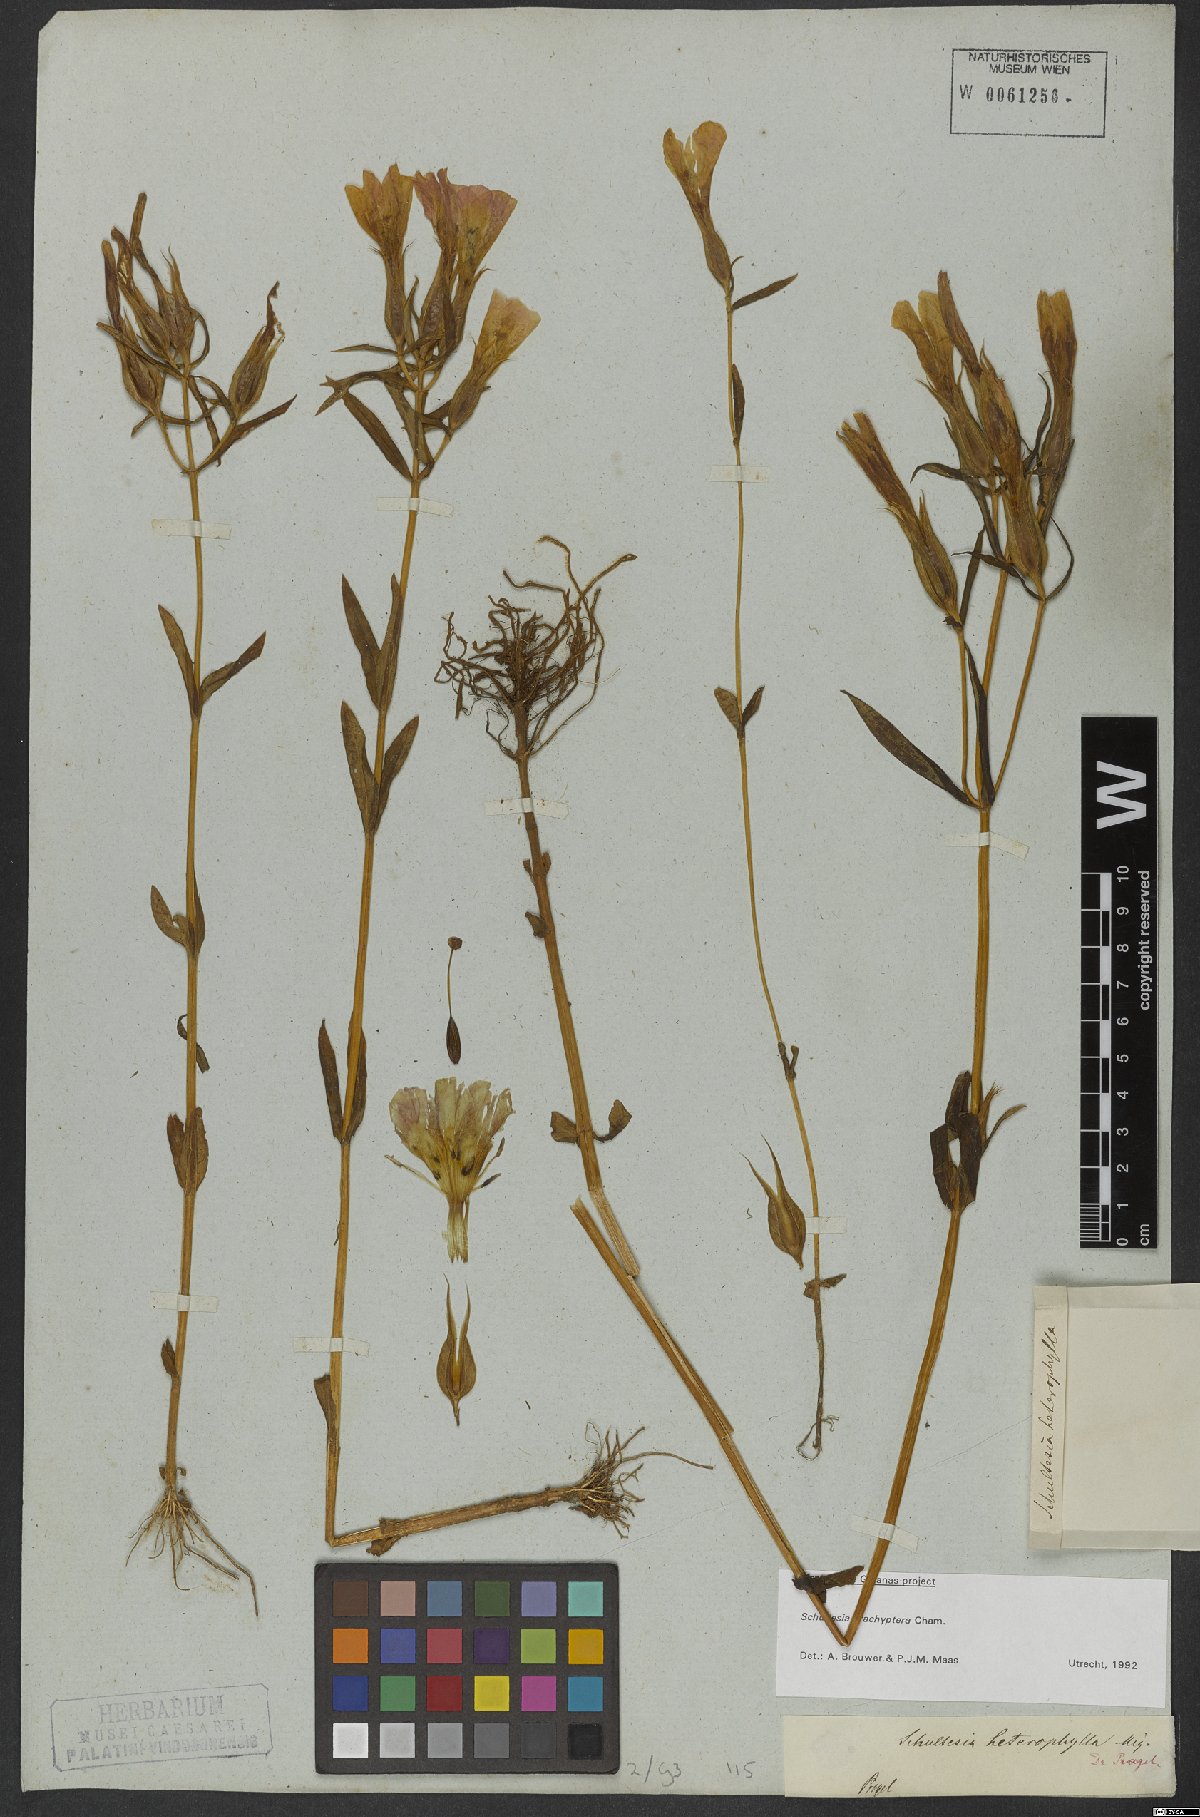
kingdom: Plantae
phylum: Tracheophyta
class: Magnoliopsida
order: Gentianales
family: Gentianaceae
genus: Schultesia
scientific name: Schultesia brachyptera
